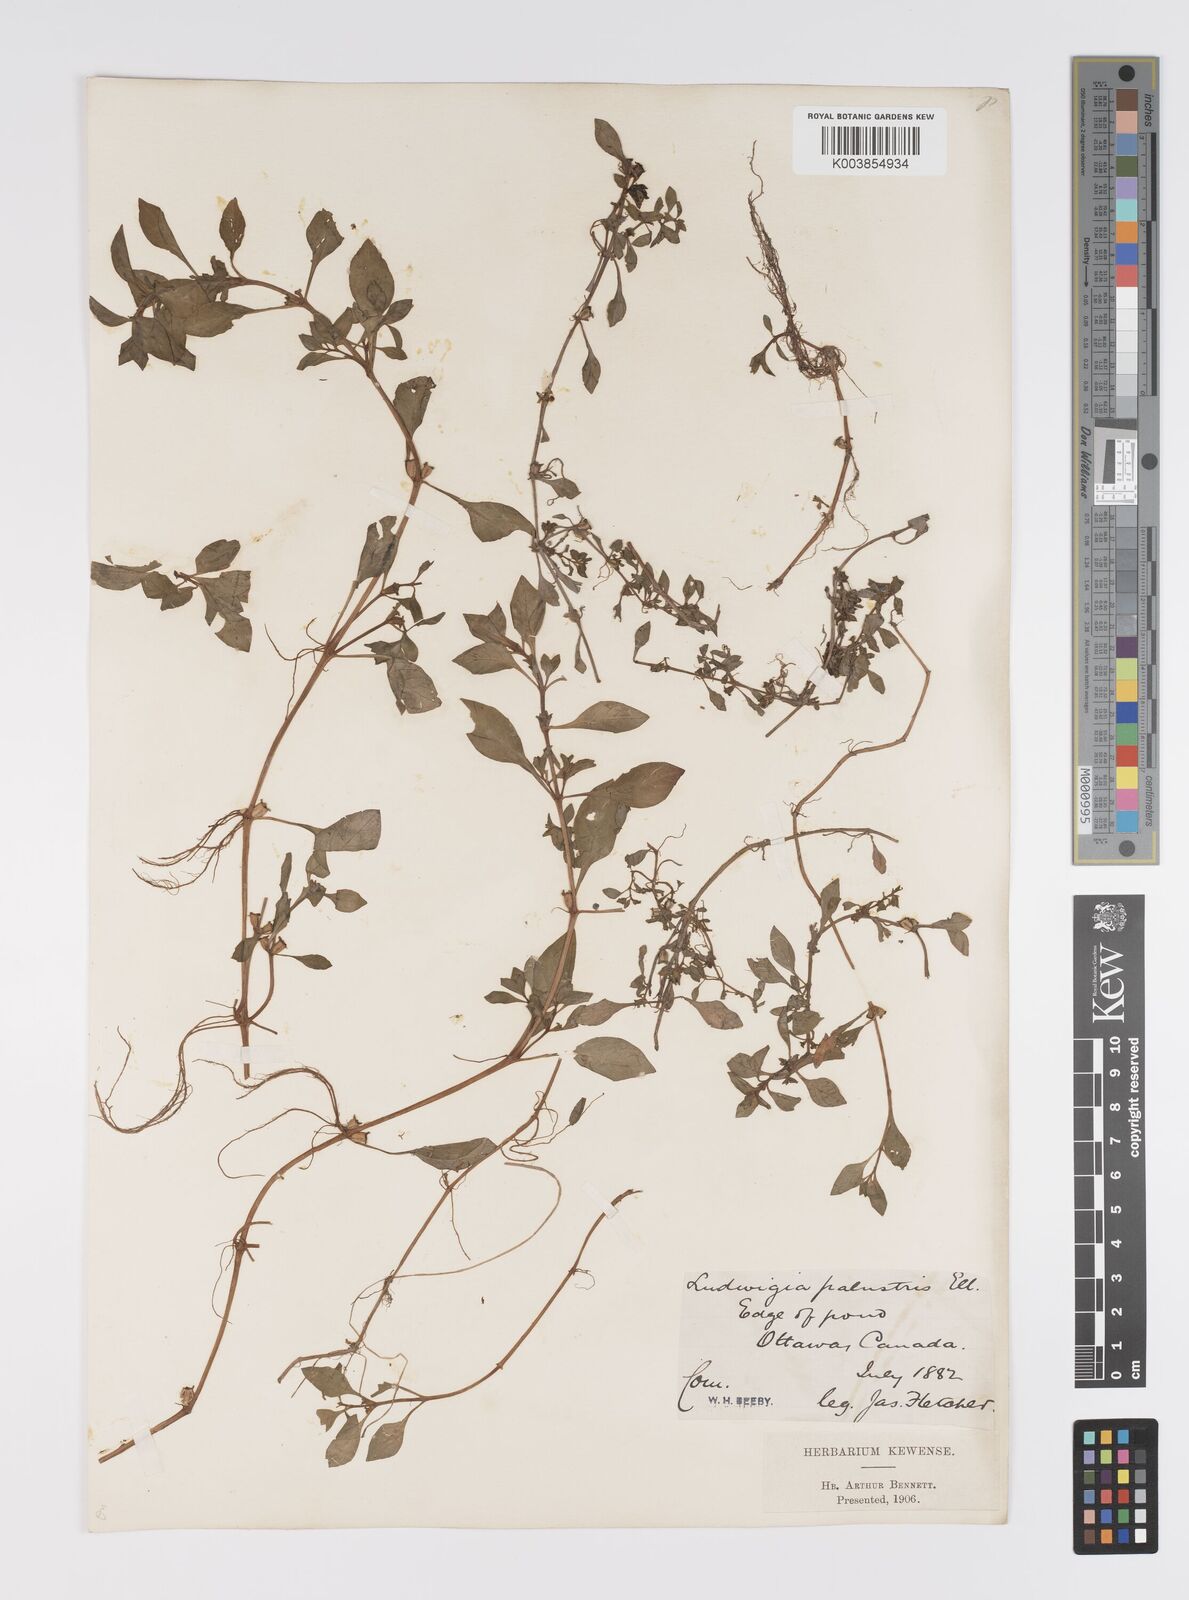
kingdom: Plantae
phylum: Tracheophyta
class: Magnoliopsida
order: Myrtales
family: Onagraceae
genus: Ludwigia
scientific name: Ludwigia palustris
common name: Hampshire-purslane
